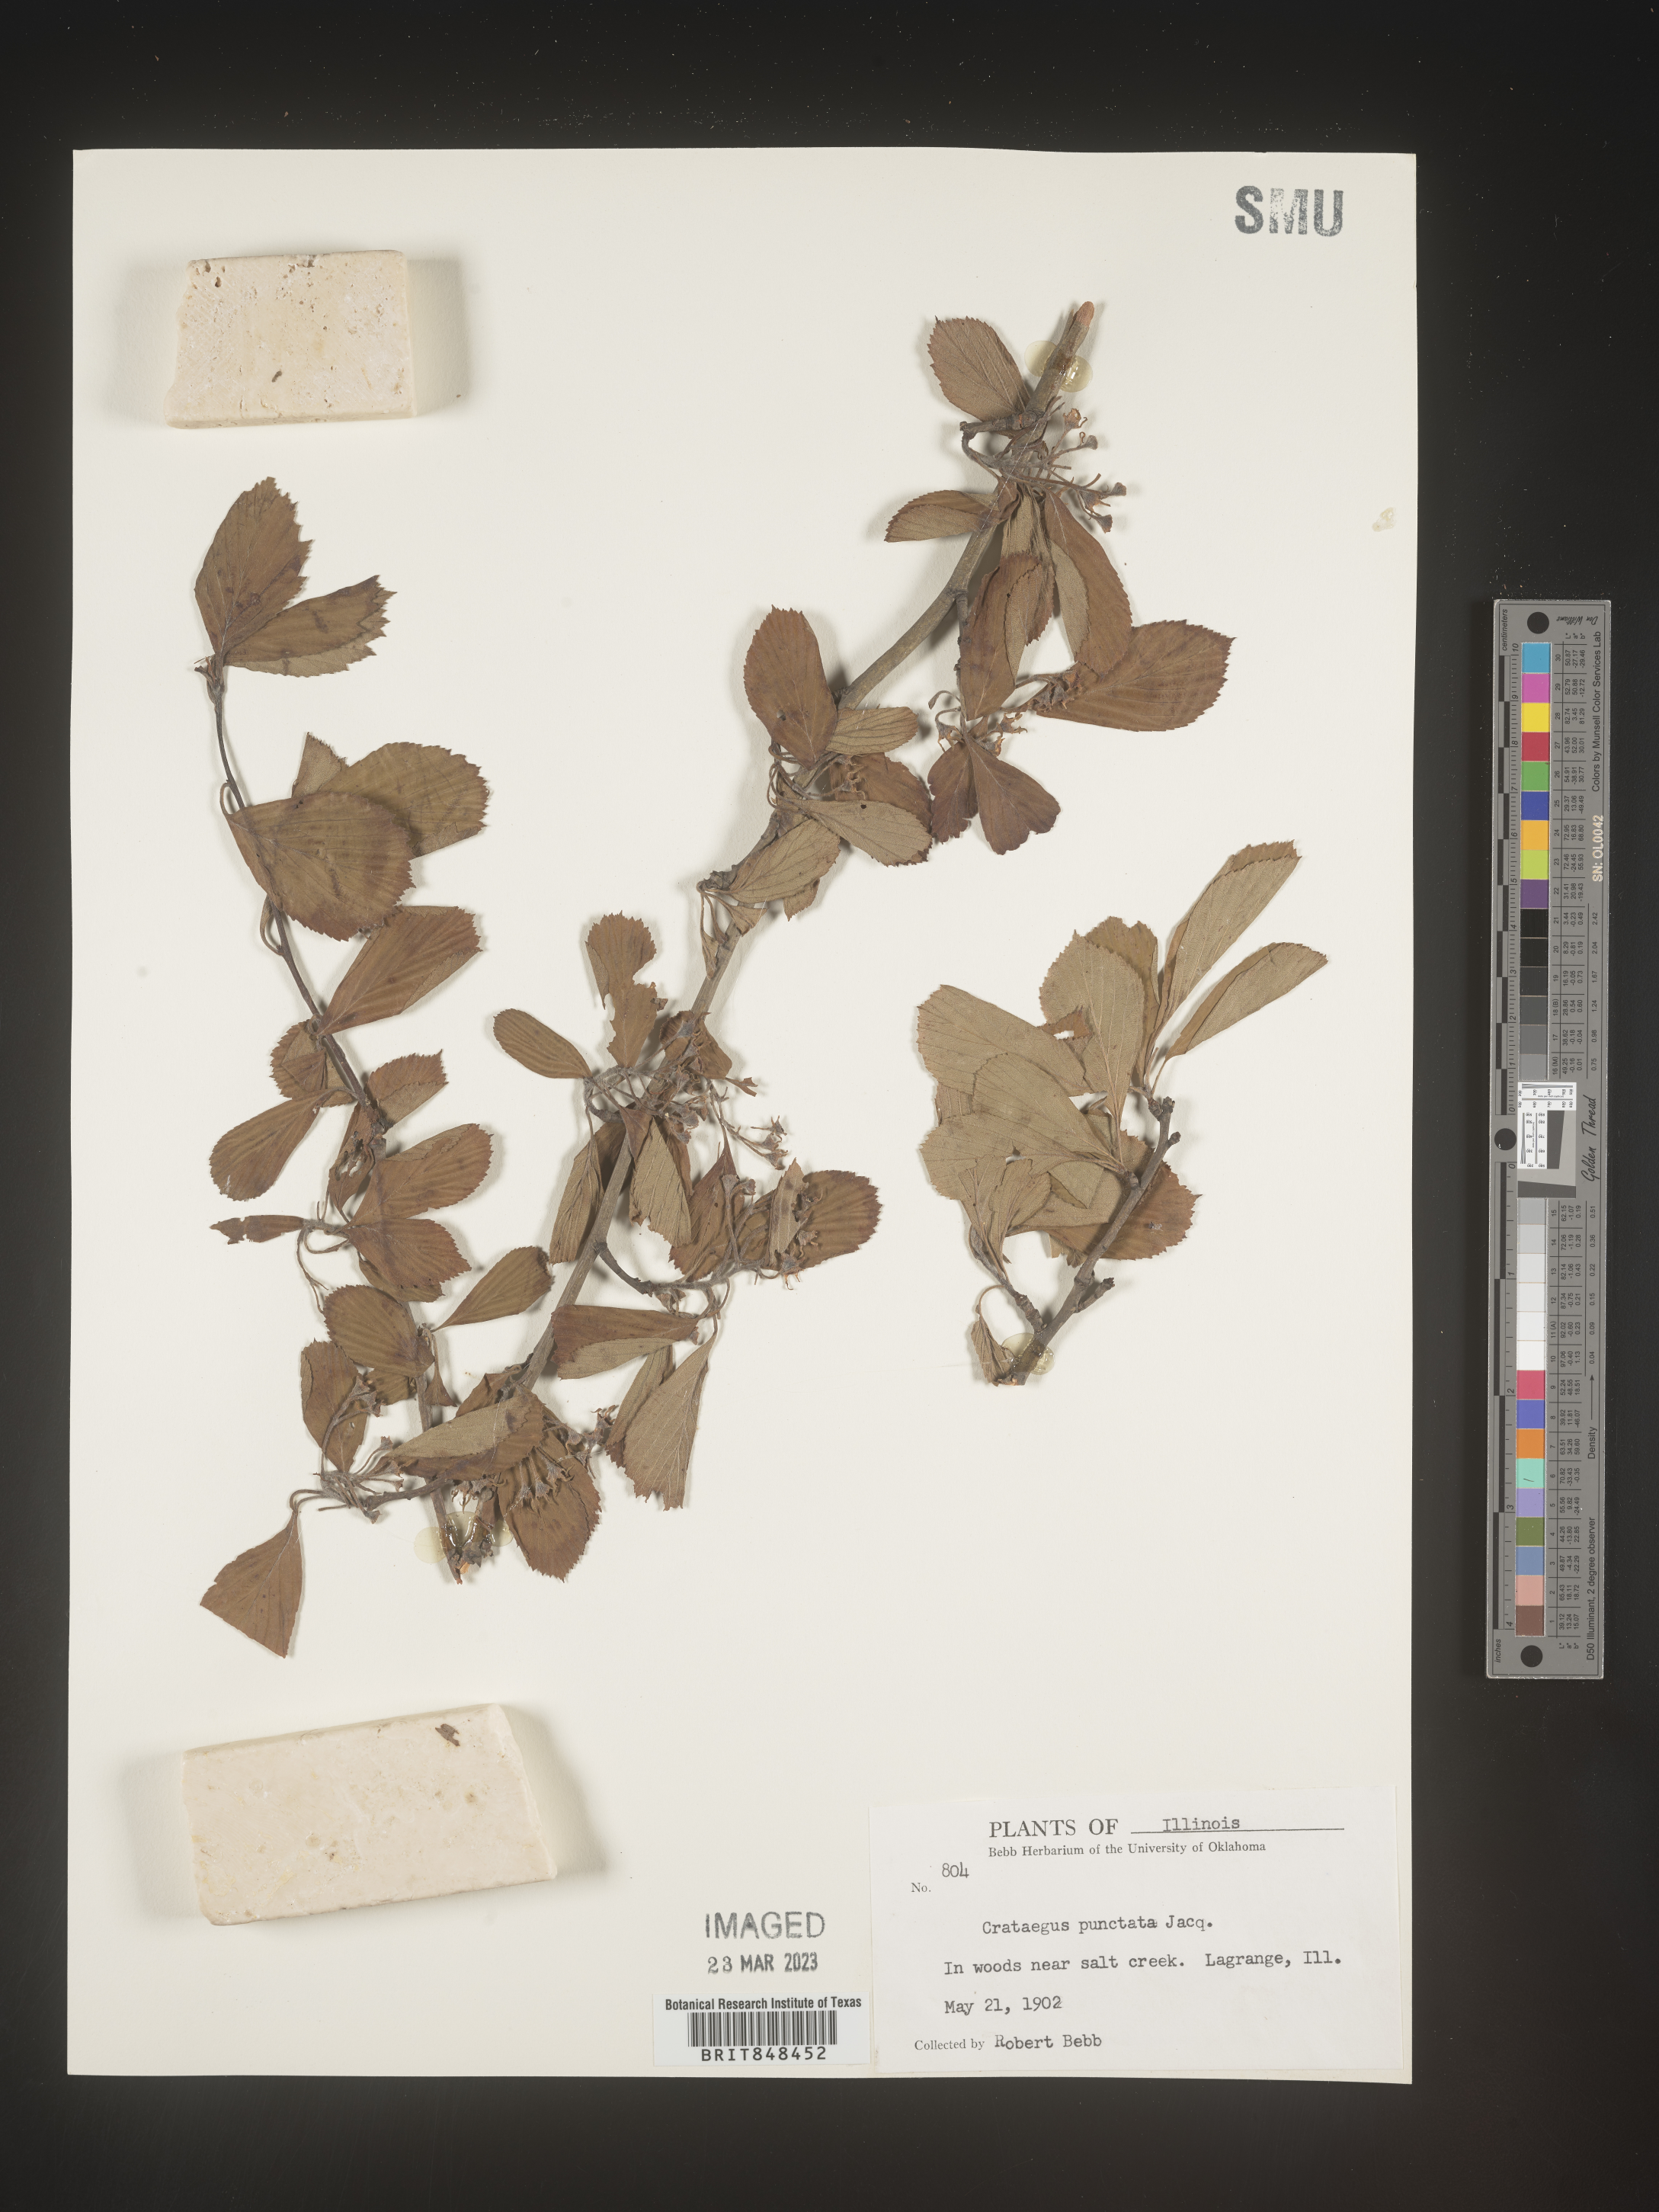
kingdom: Plantae
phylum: Tracheophyta
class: Magnoliopsida
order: Rosales
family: Rosaceae
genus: Crataegus
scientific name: Crataegus punctata
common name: Dotted hawthorn
